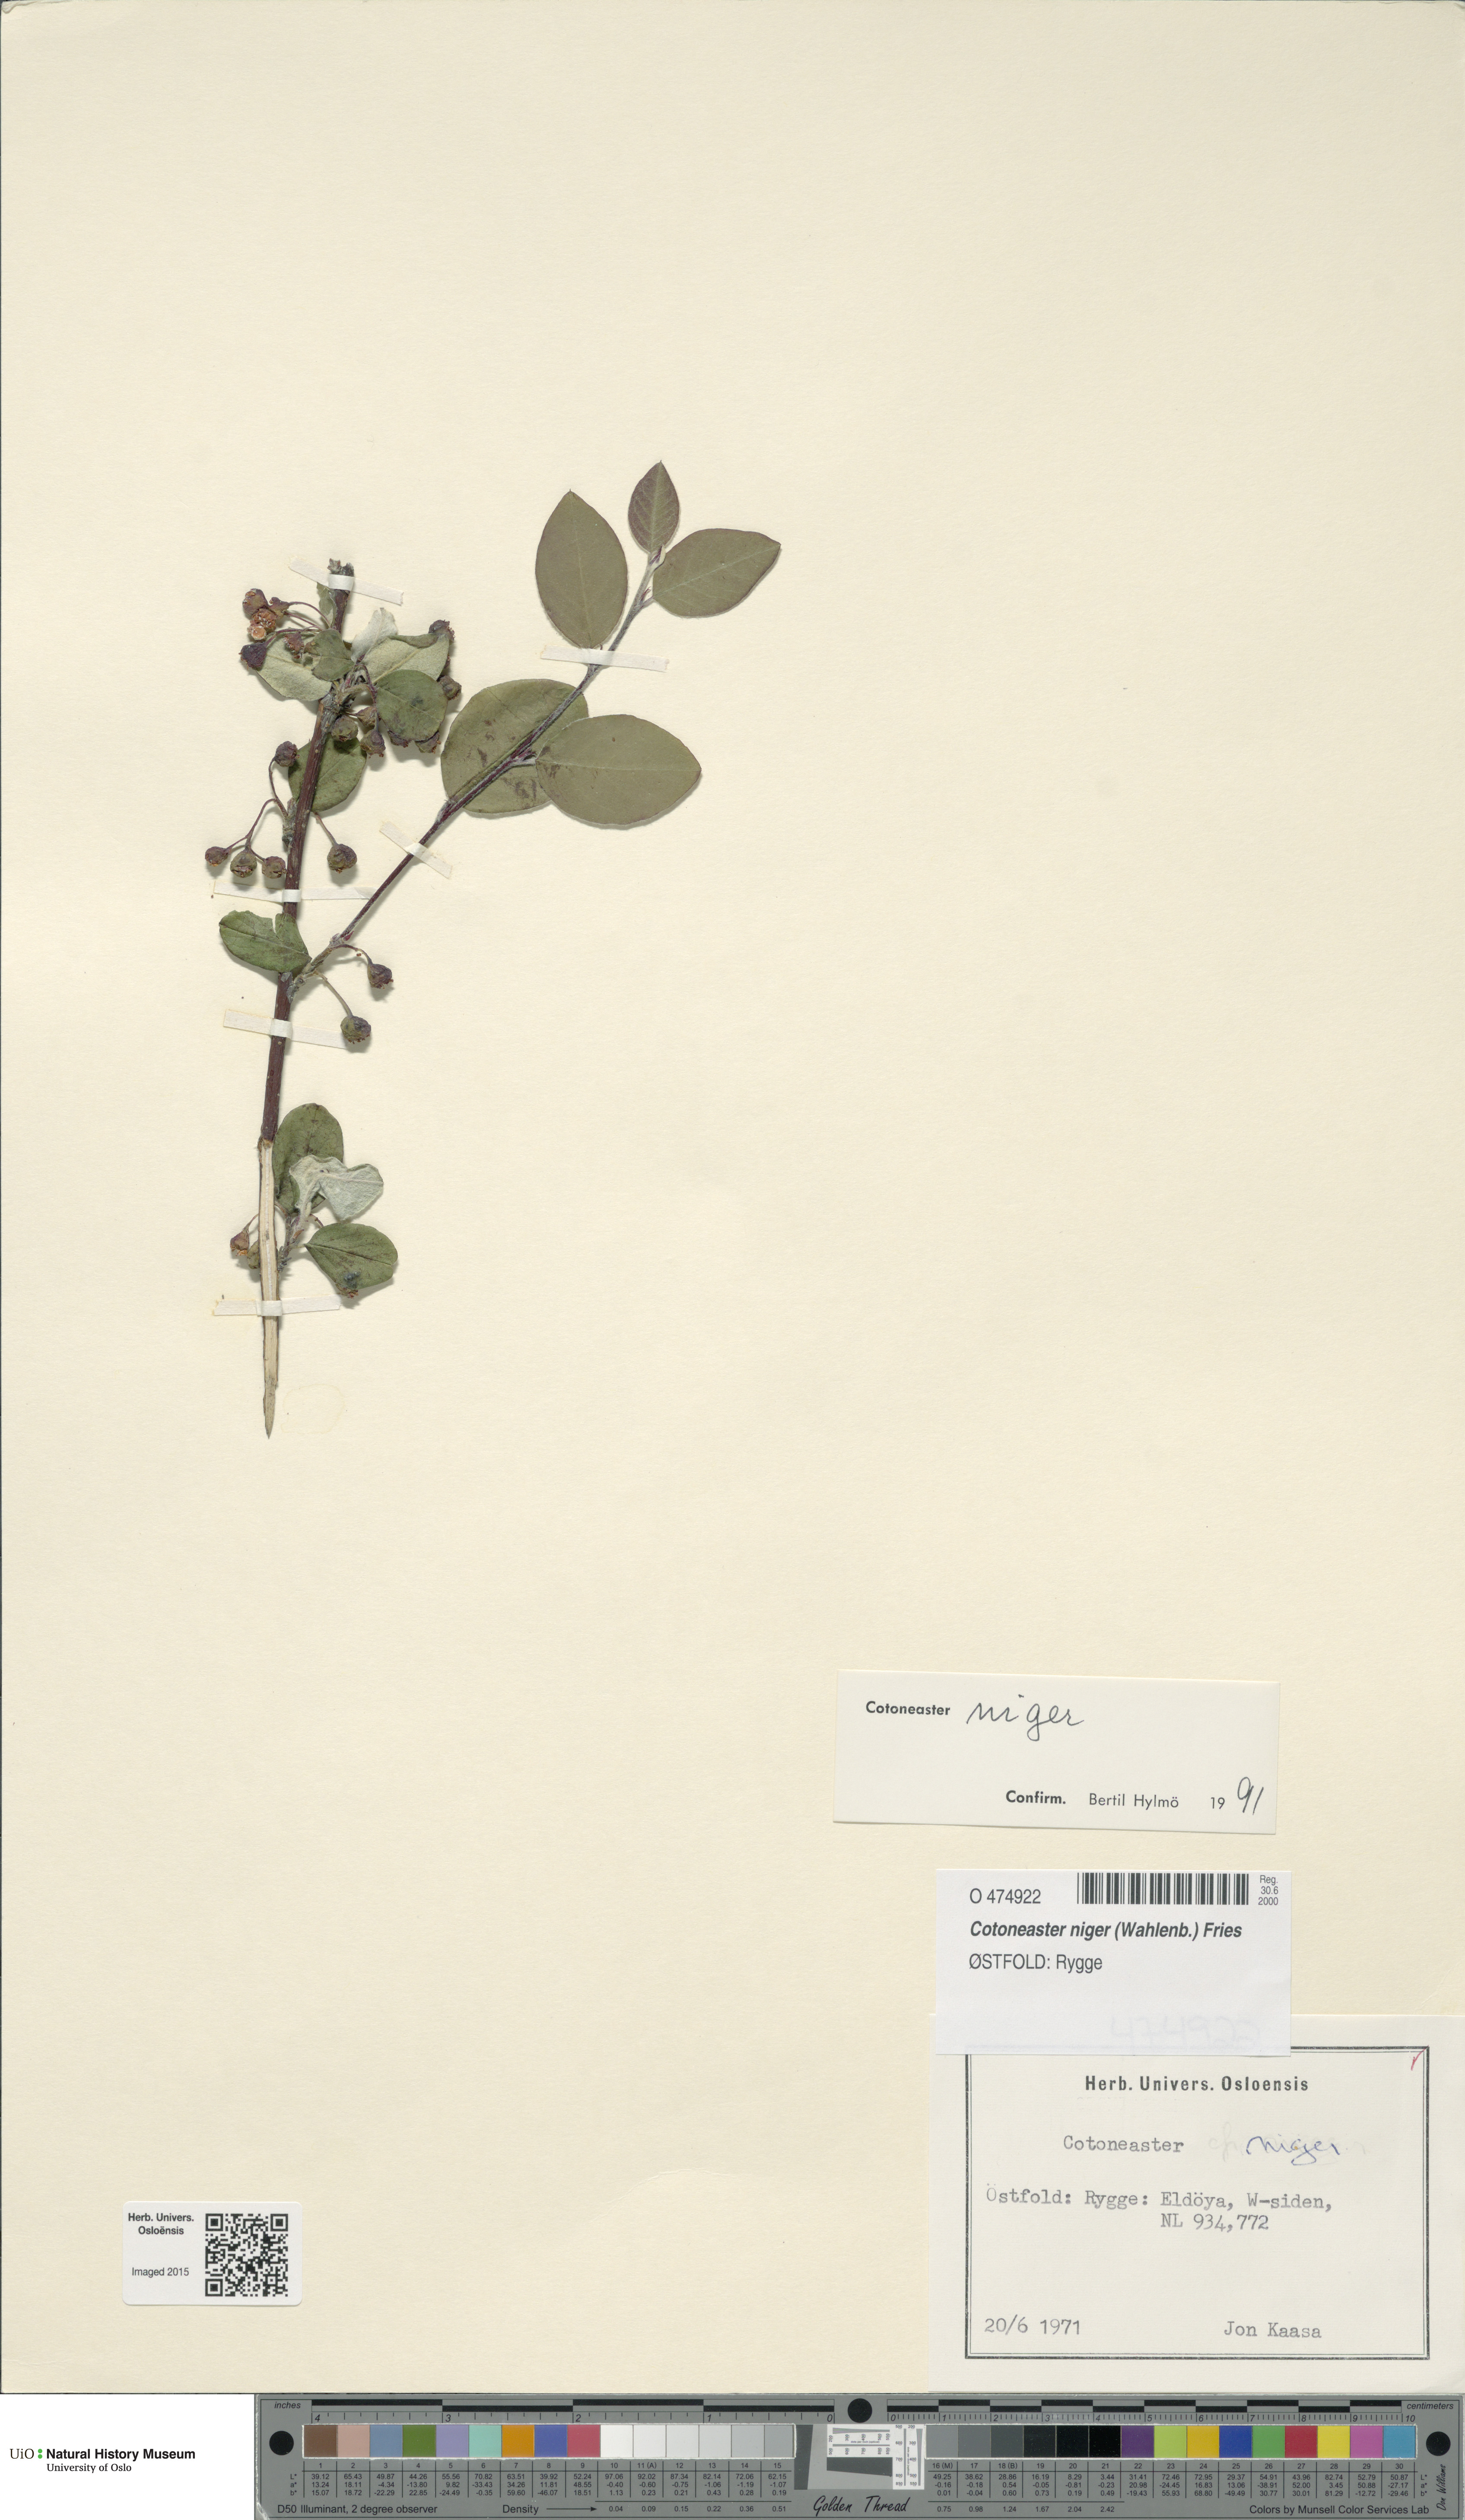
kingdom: Plantae
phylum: Tracheophyta
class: Magnoliopsida
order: Rosales
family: Rosaceae
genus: Cotoneaster
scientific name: Cotoneaster niger
